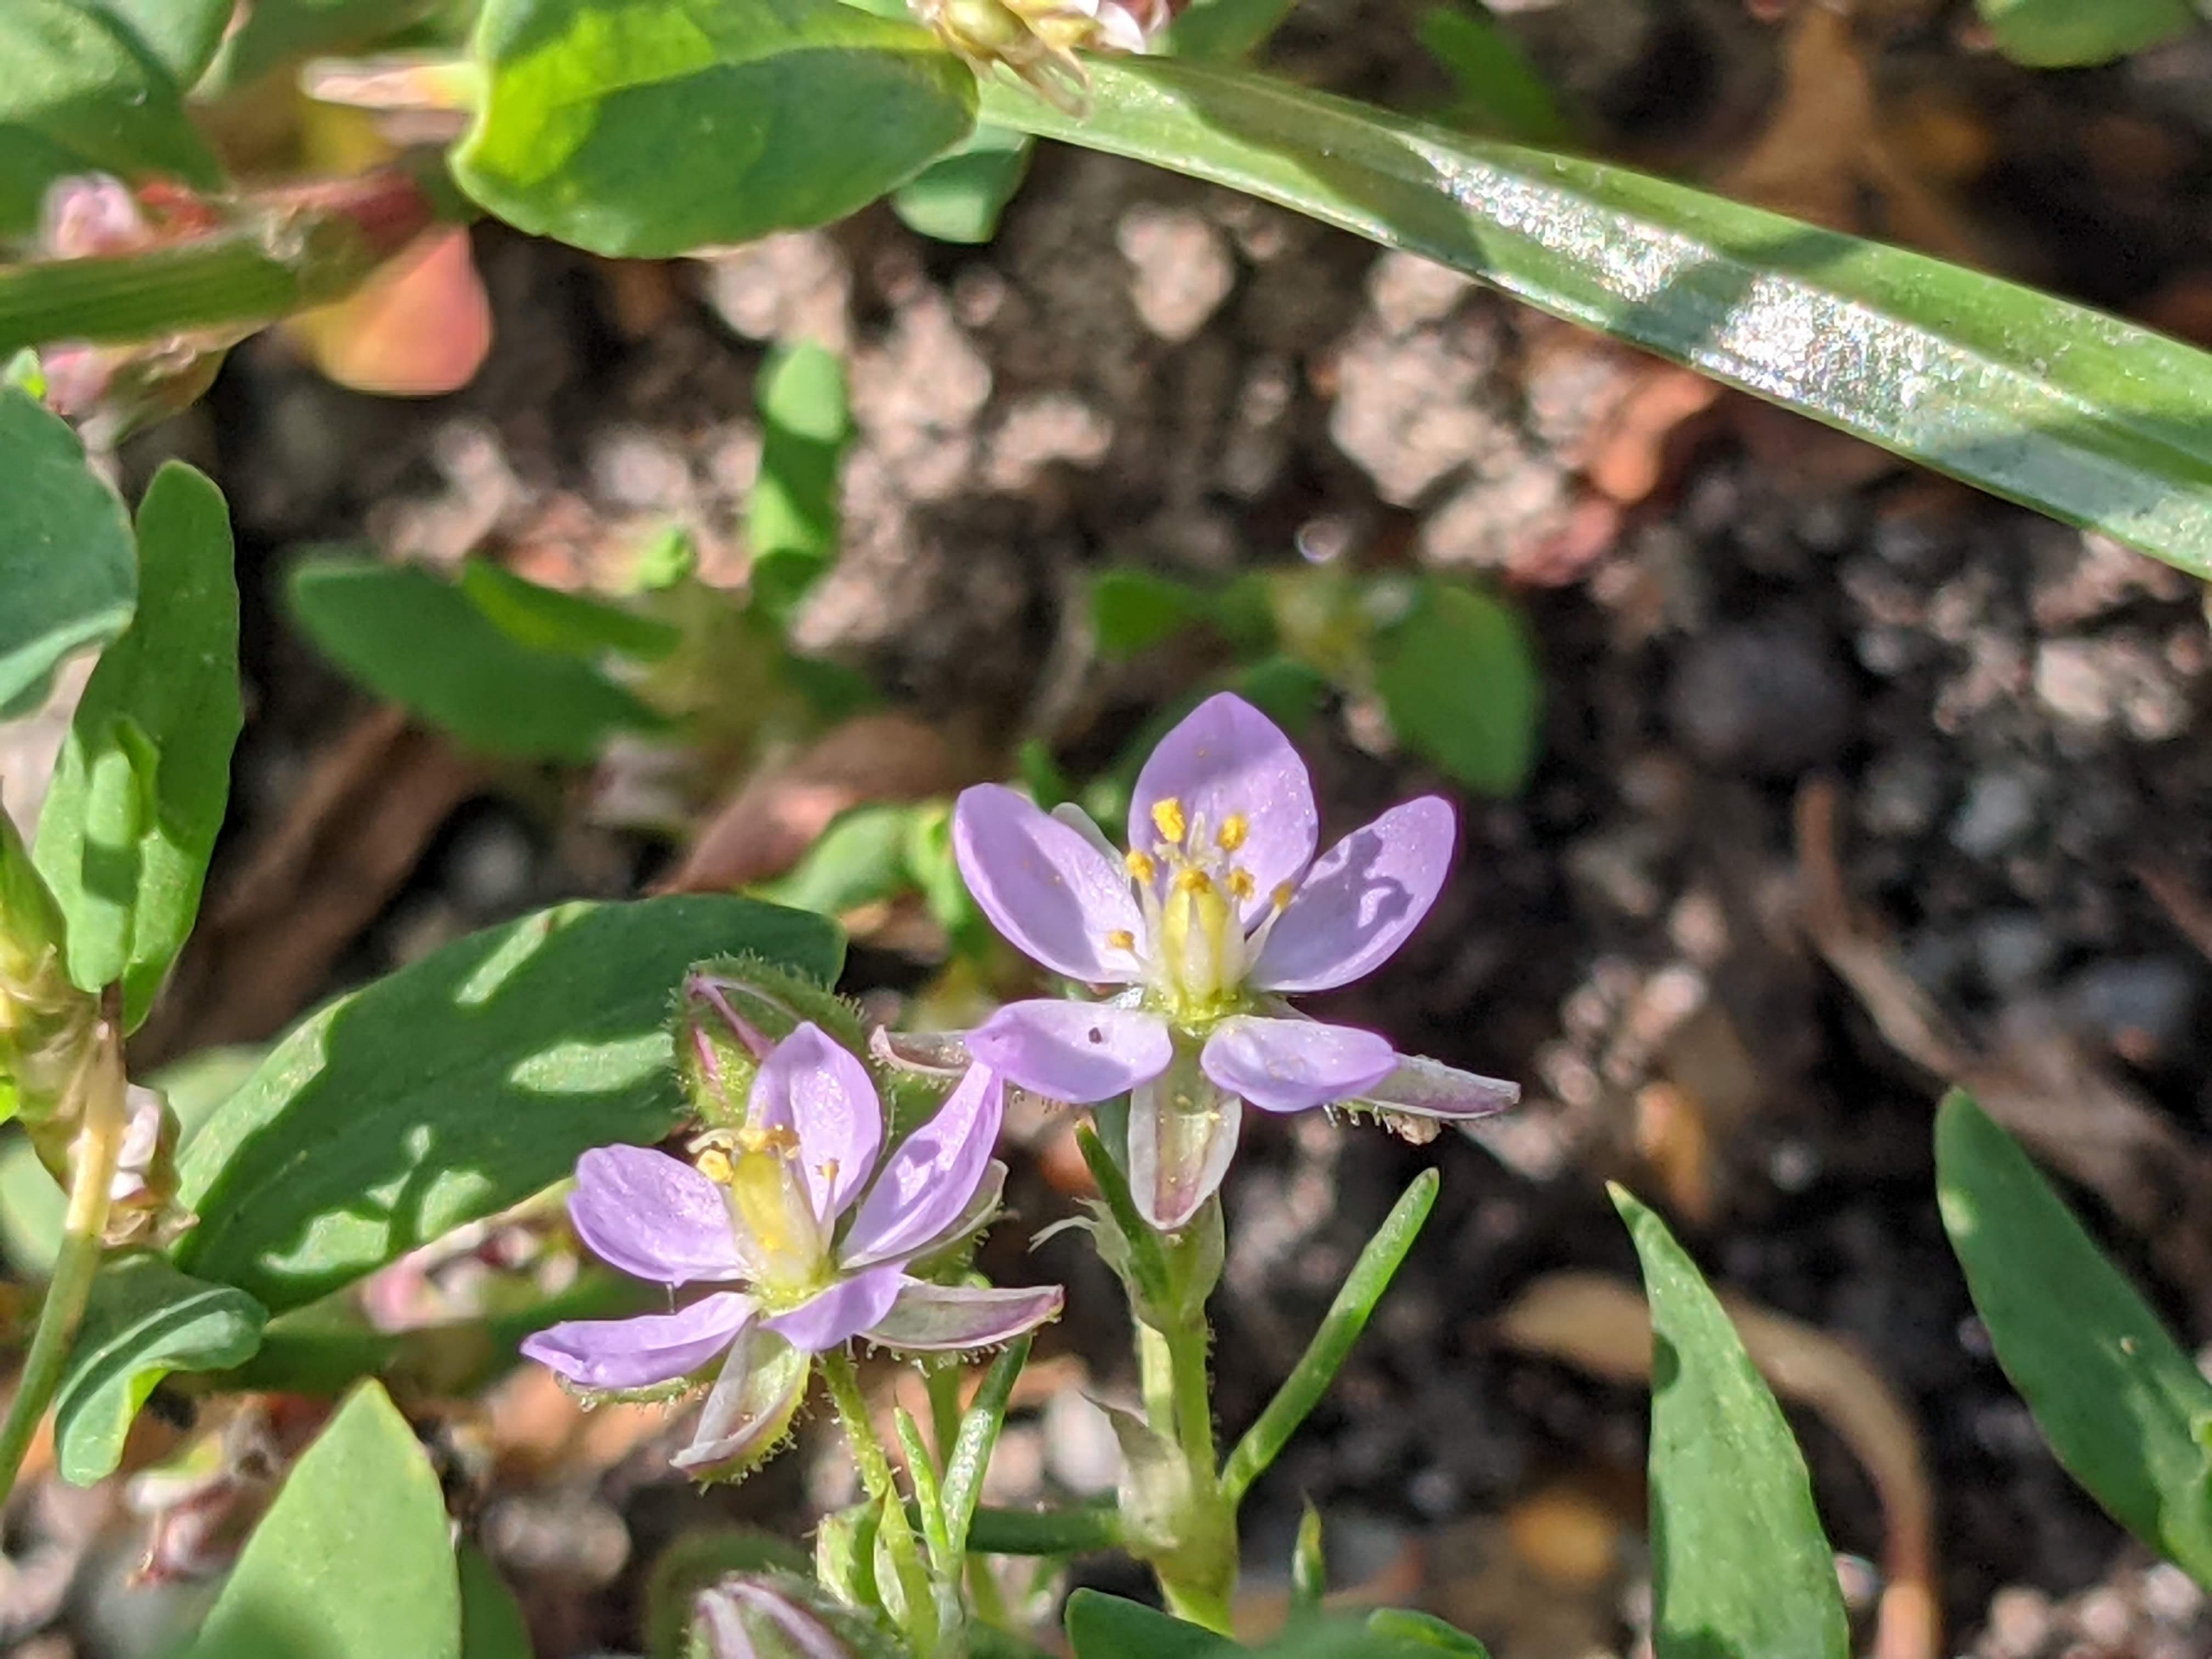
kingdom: Plantae
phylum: Tracheophyta
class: Magnoliopsida
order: Caryophyllales
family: Caryophyllaceae
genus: Spergularia
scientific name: Spergularia rubra
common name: Mark-hindeknæ
